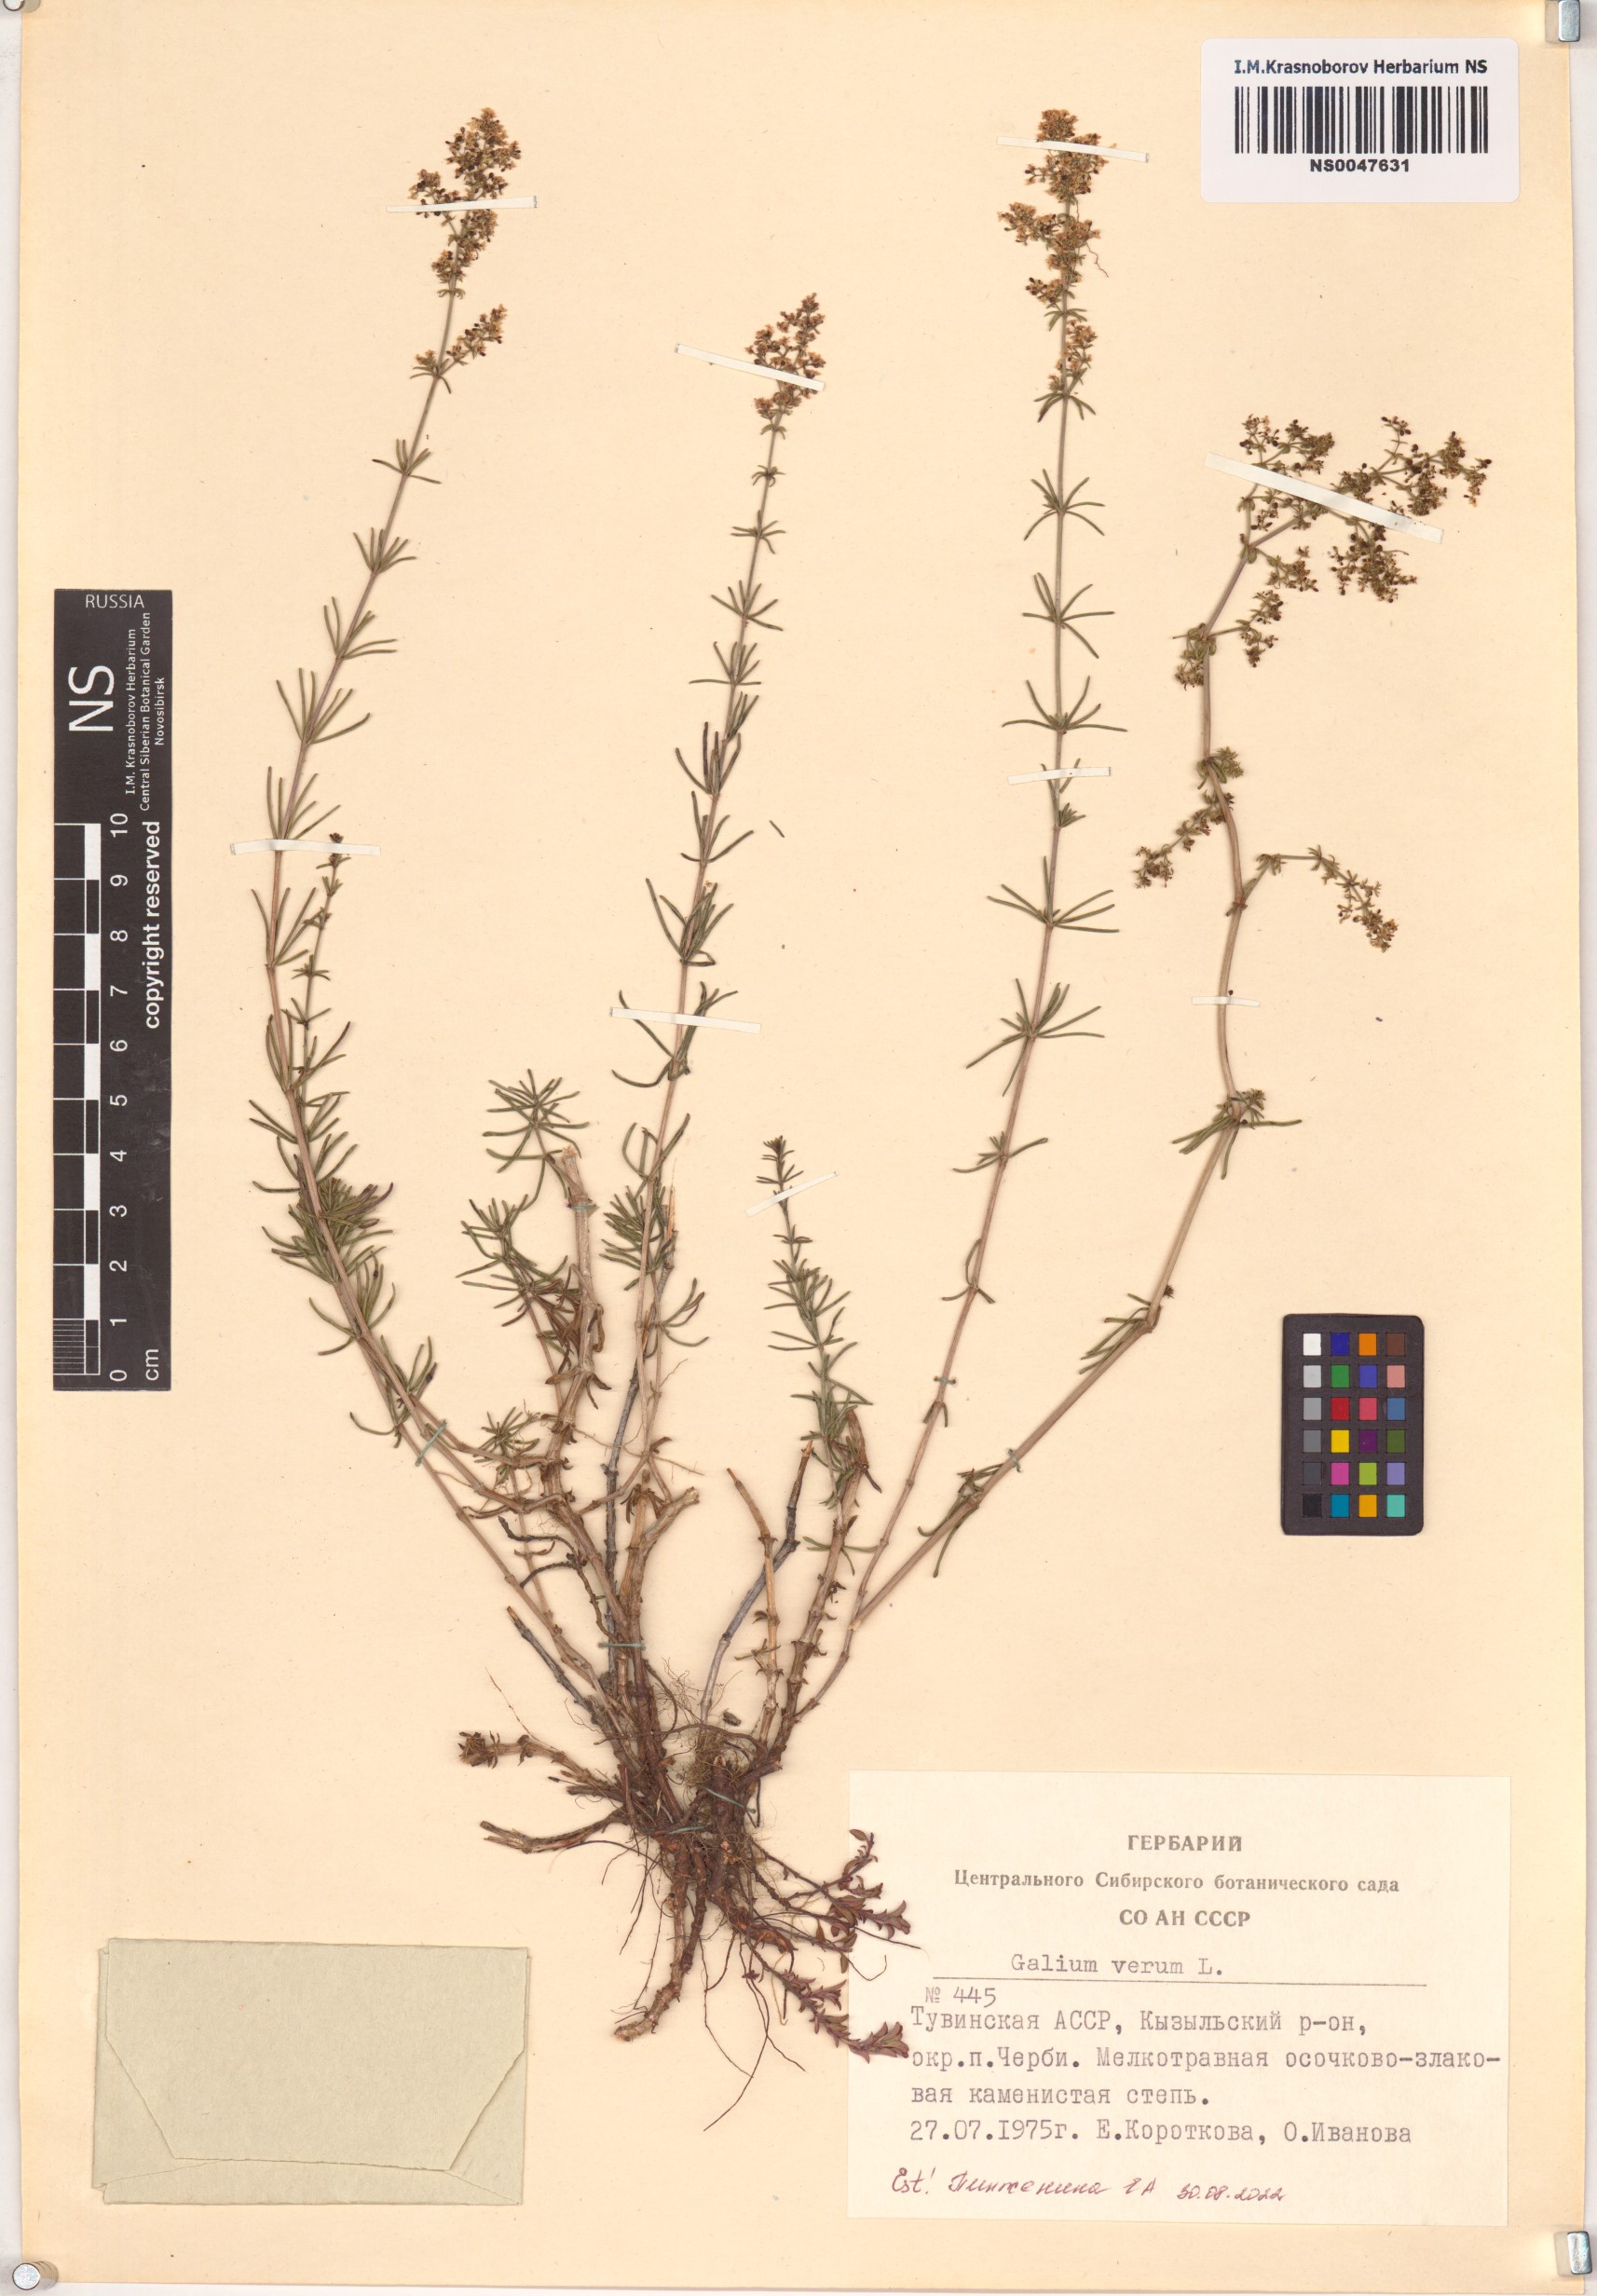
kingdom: Plantae
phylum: Tracheophyta
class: Magnoliopsida
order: Gentianales
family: Rubiaceae
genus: Galium
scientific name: Galium verum
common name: Lady's bedstraw
